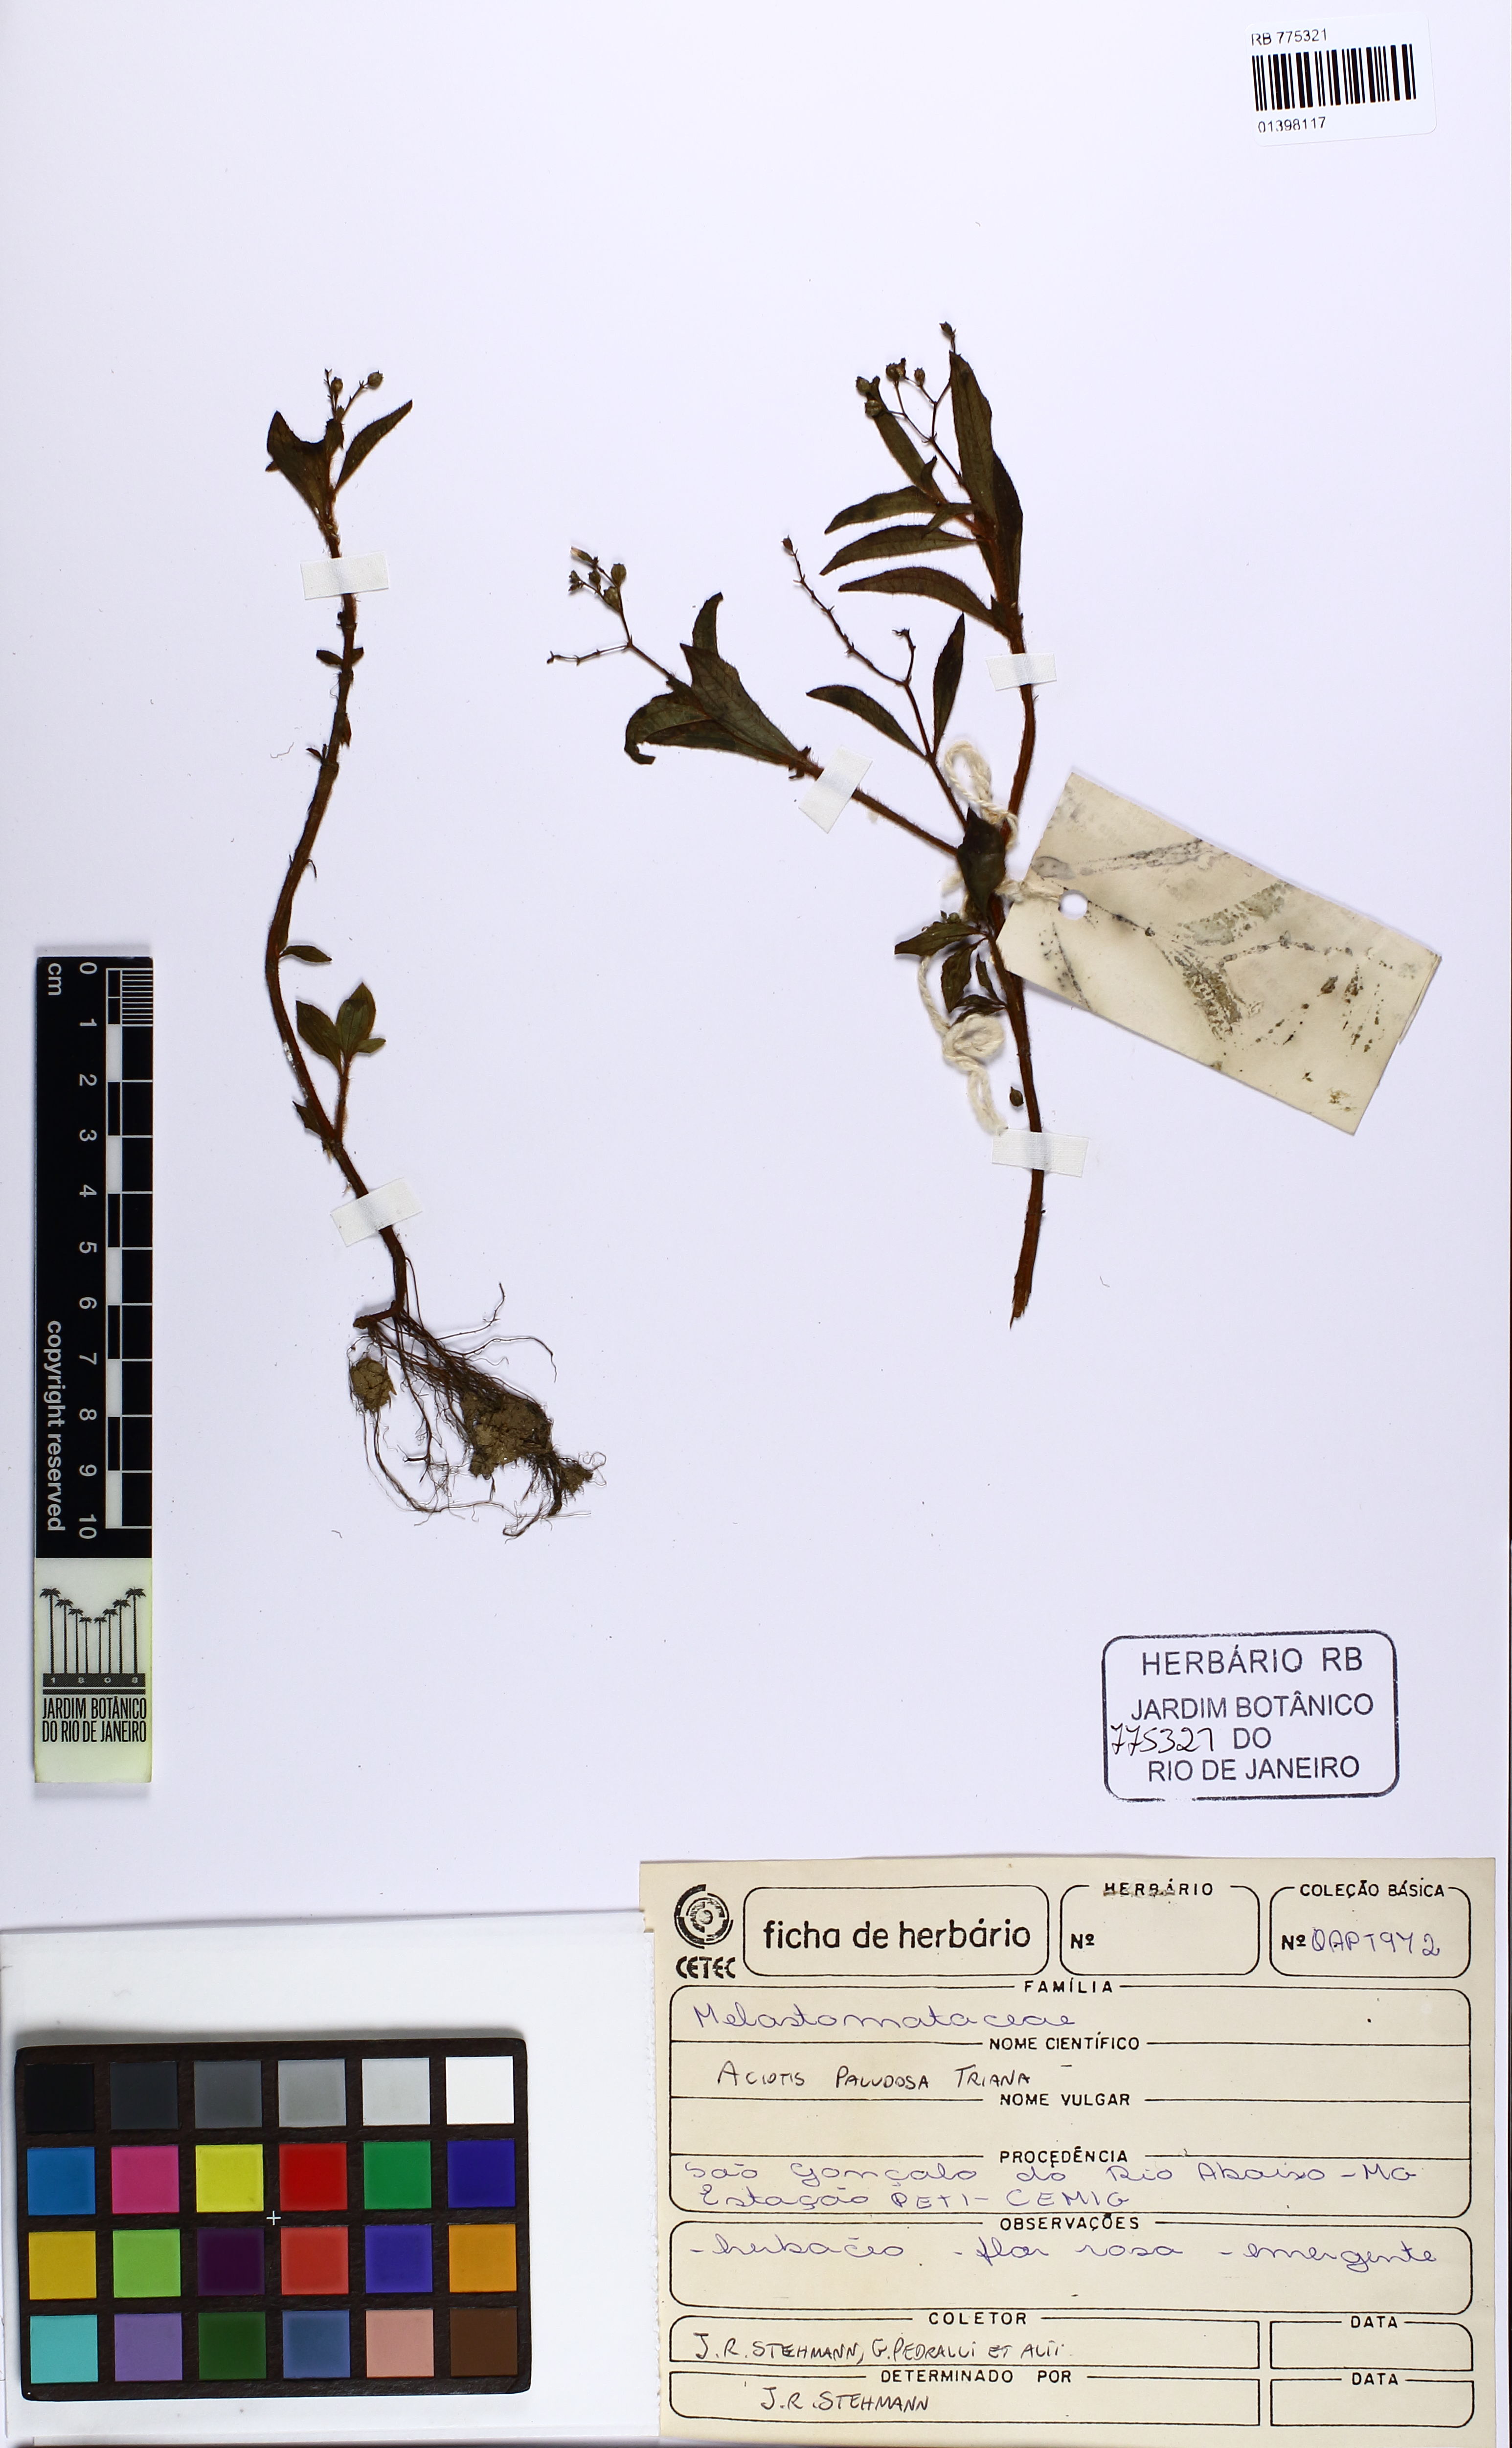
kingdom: Plantae
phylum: Tracheophyta
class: Magnoliopsida
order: Myrtales
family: Melastomataceae
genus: Aciotis
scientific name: Aciotis paludosa
